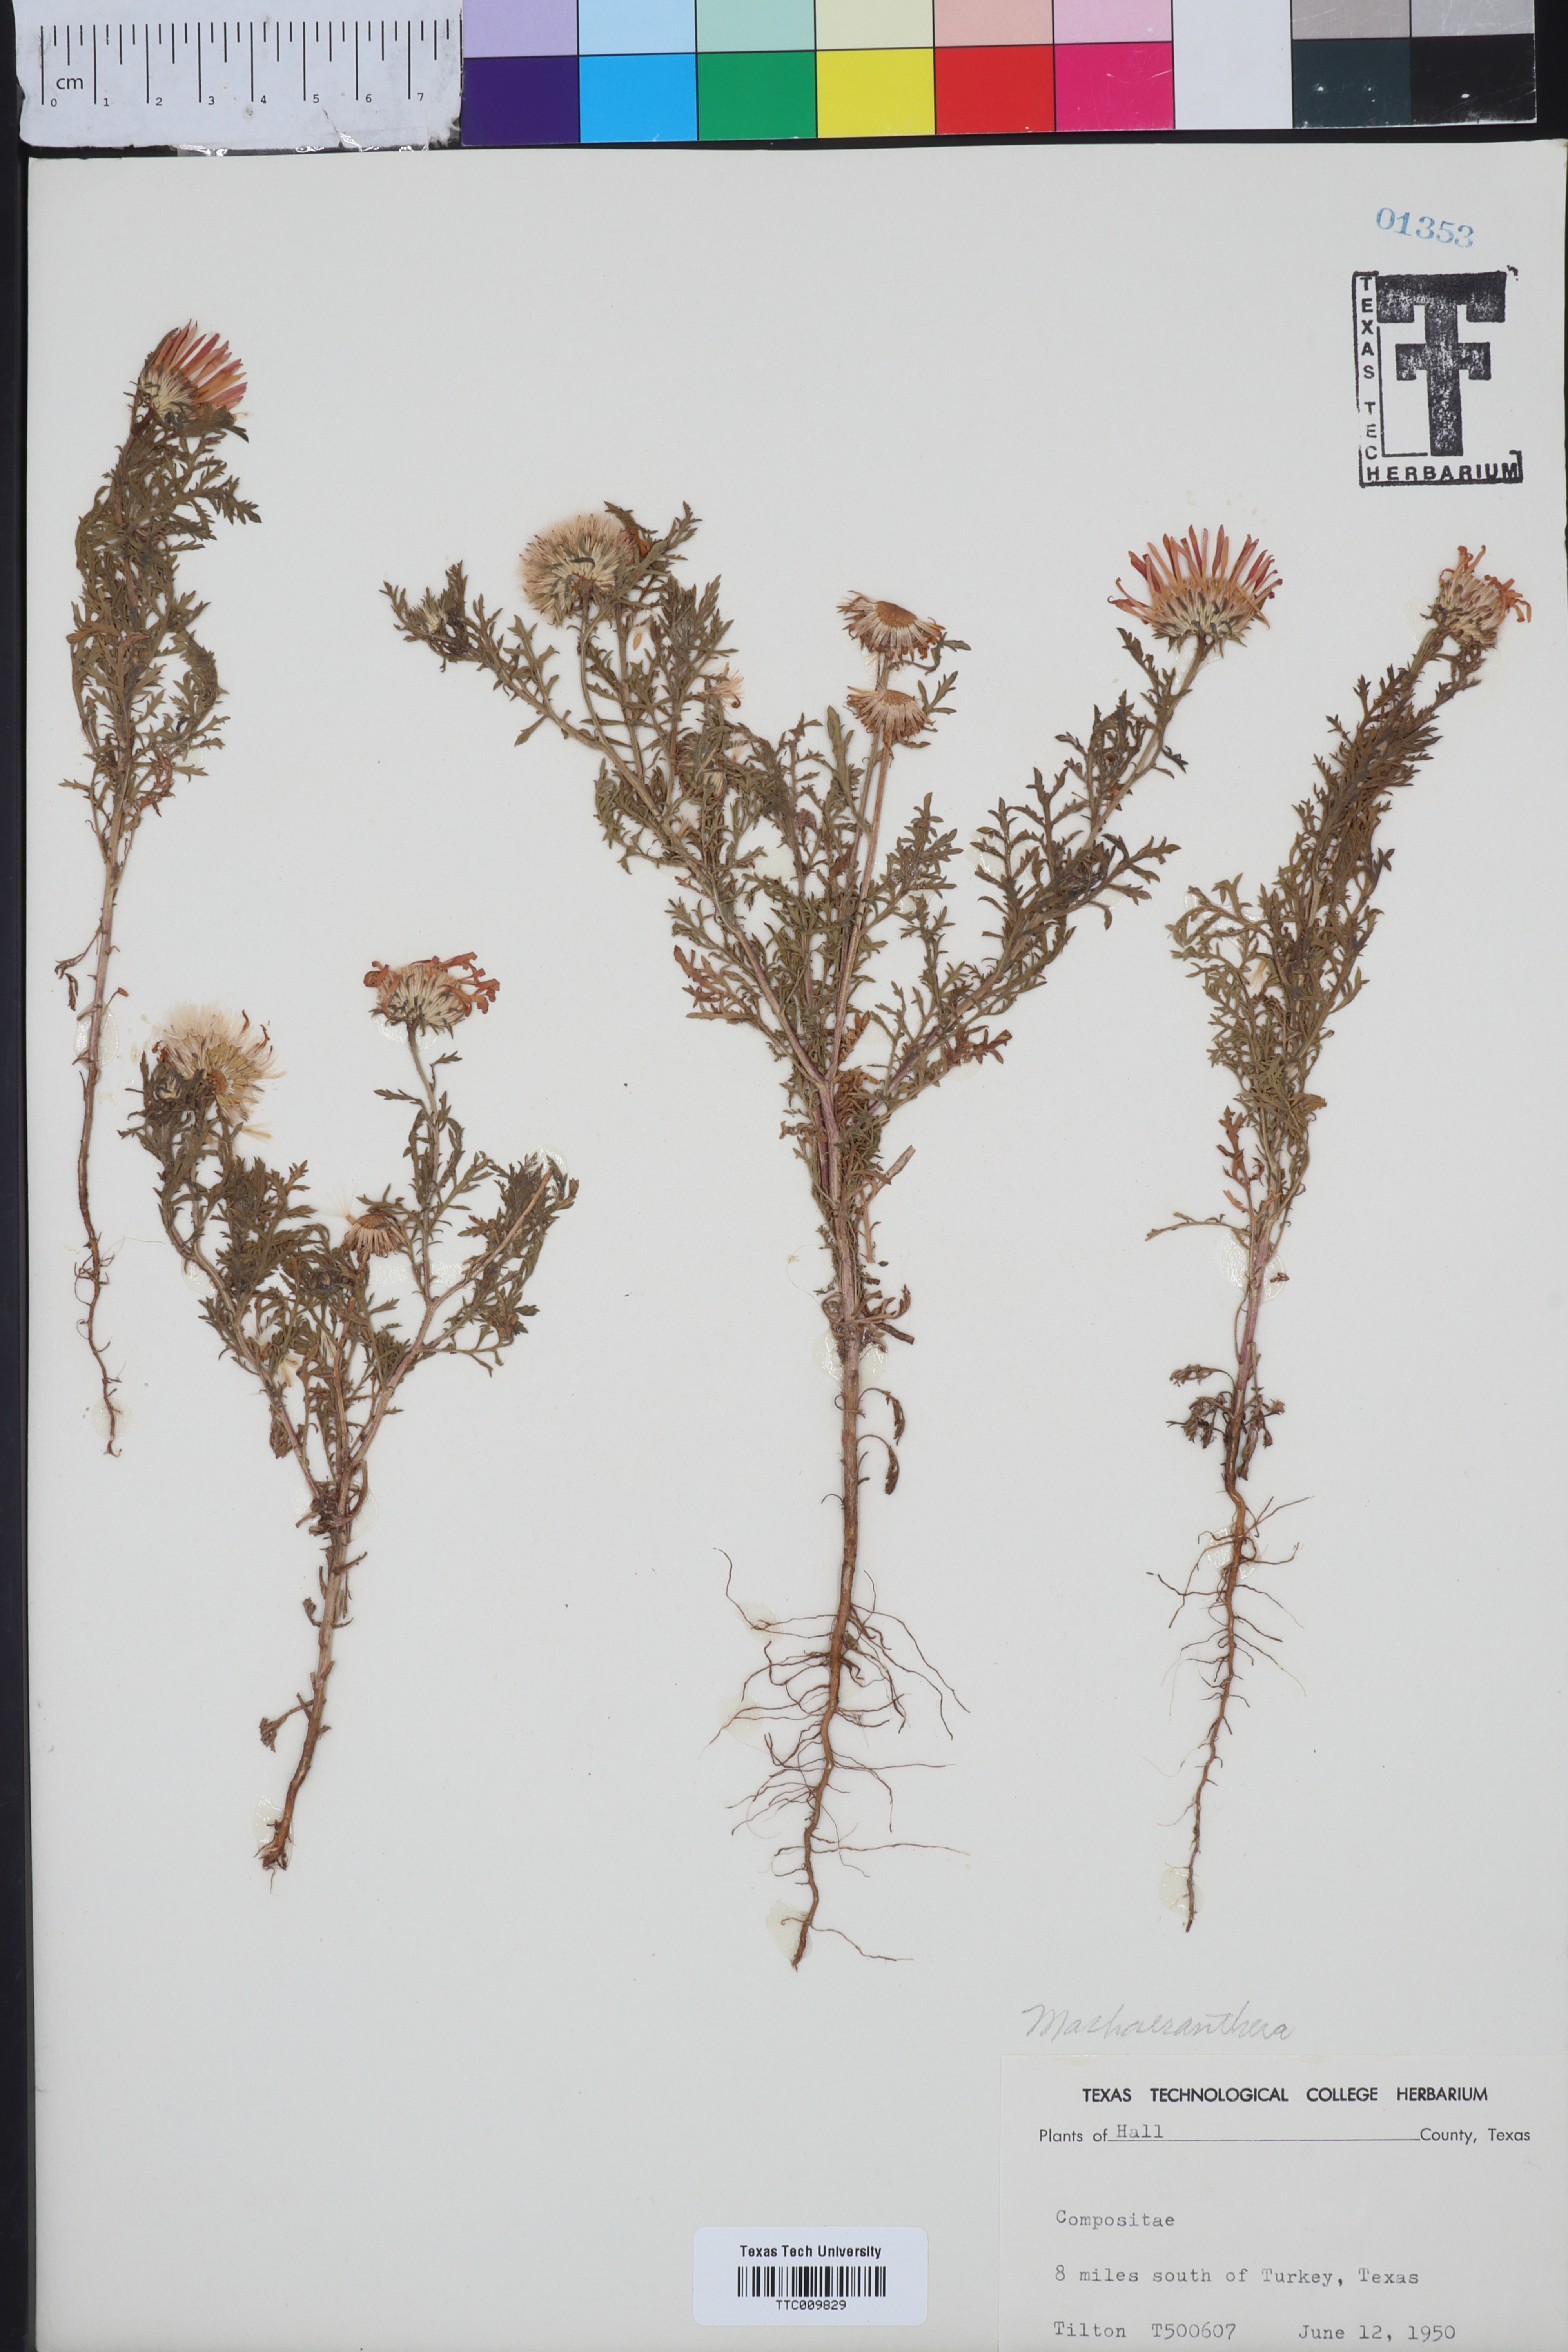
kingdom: Plantae
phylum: Tracheophyta
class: Magnoliopsida
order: Asterales
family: Asteraceae
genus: Machaeranthera
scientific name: Machaeranthera tanacetifolia
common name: Tansy-aster
